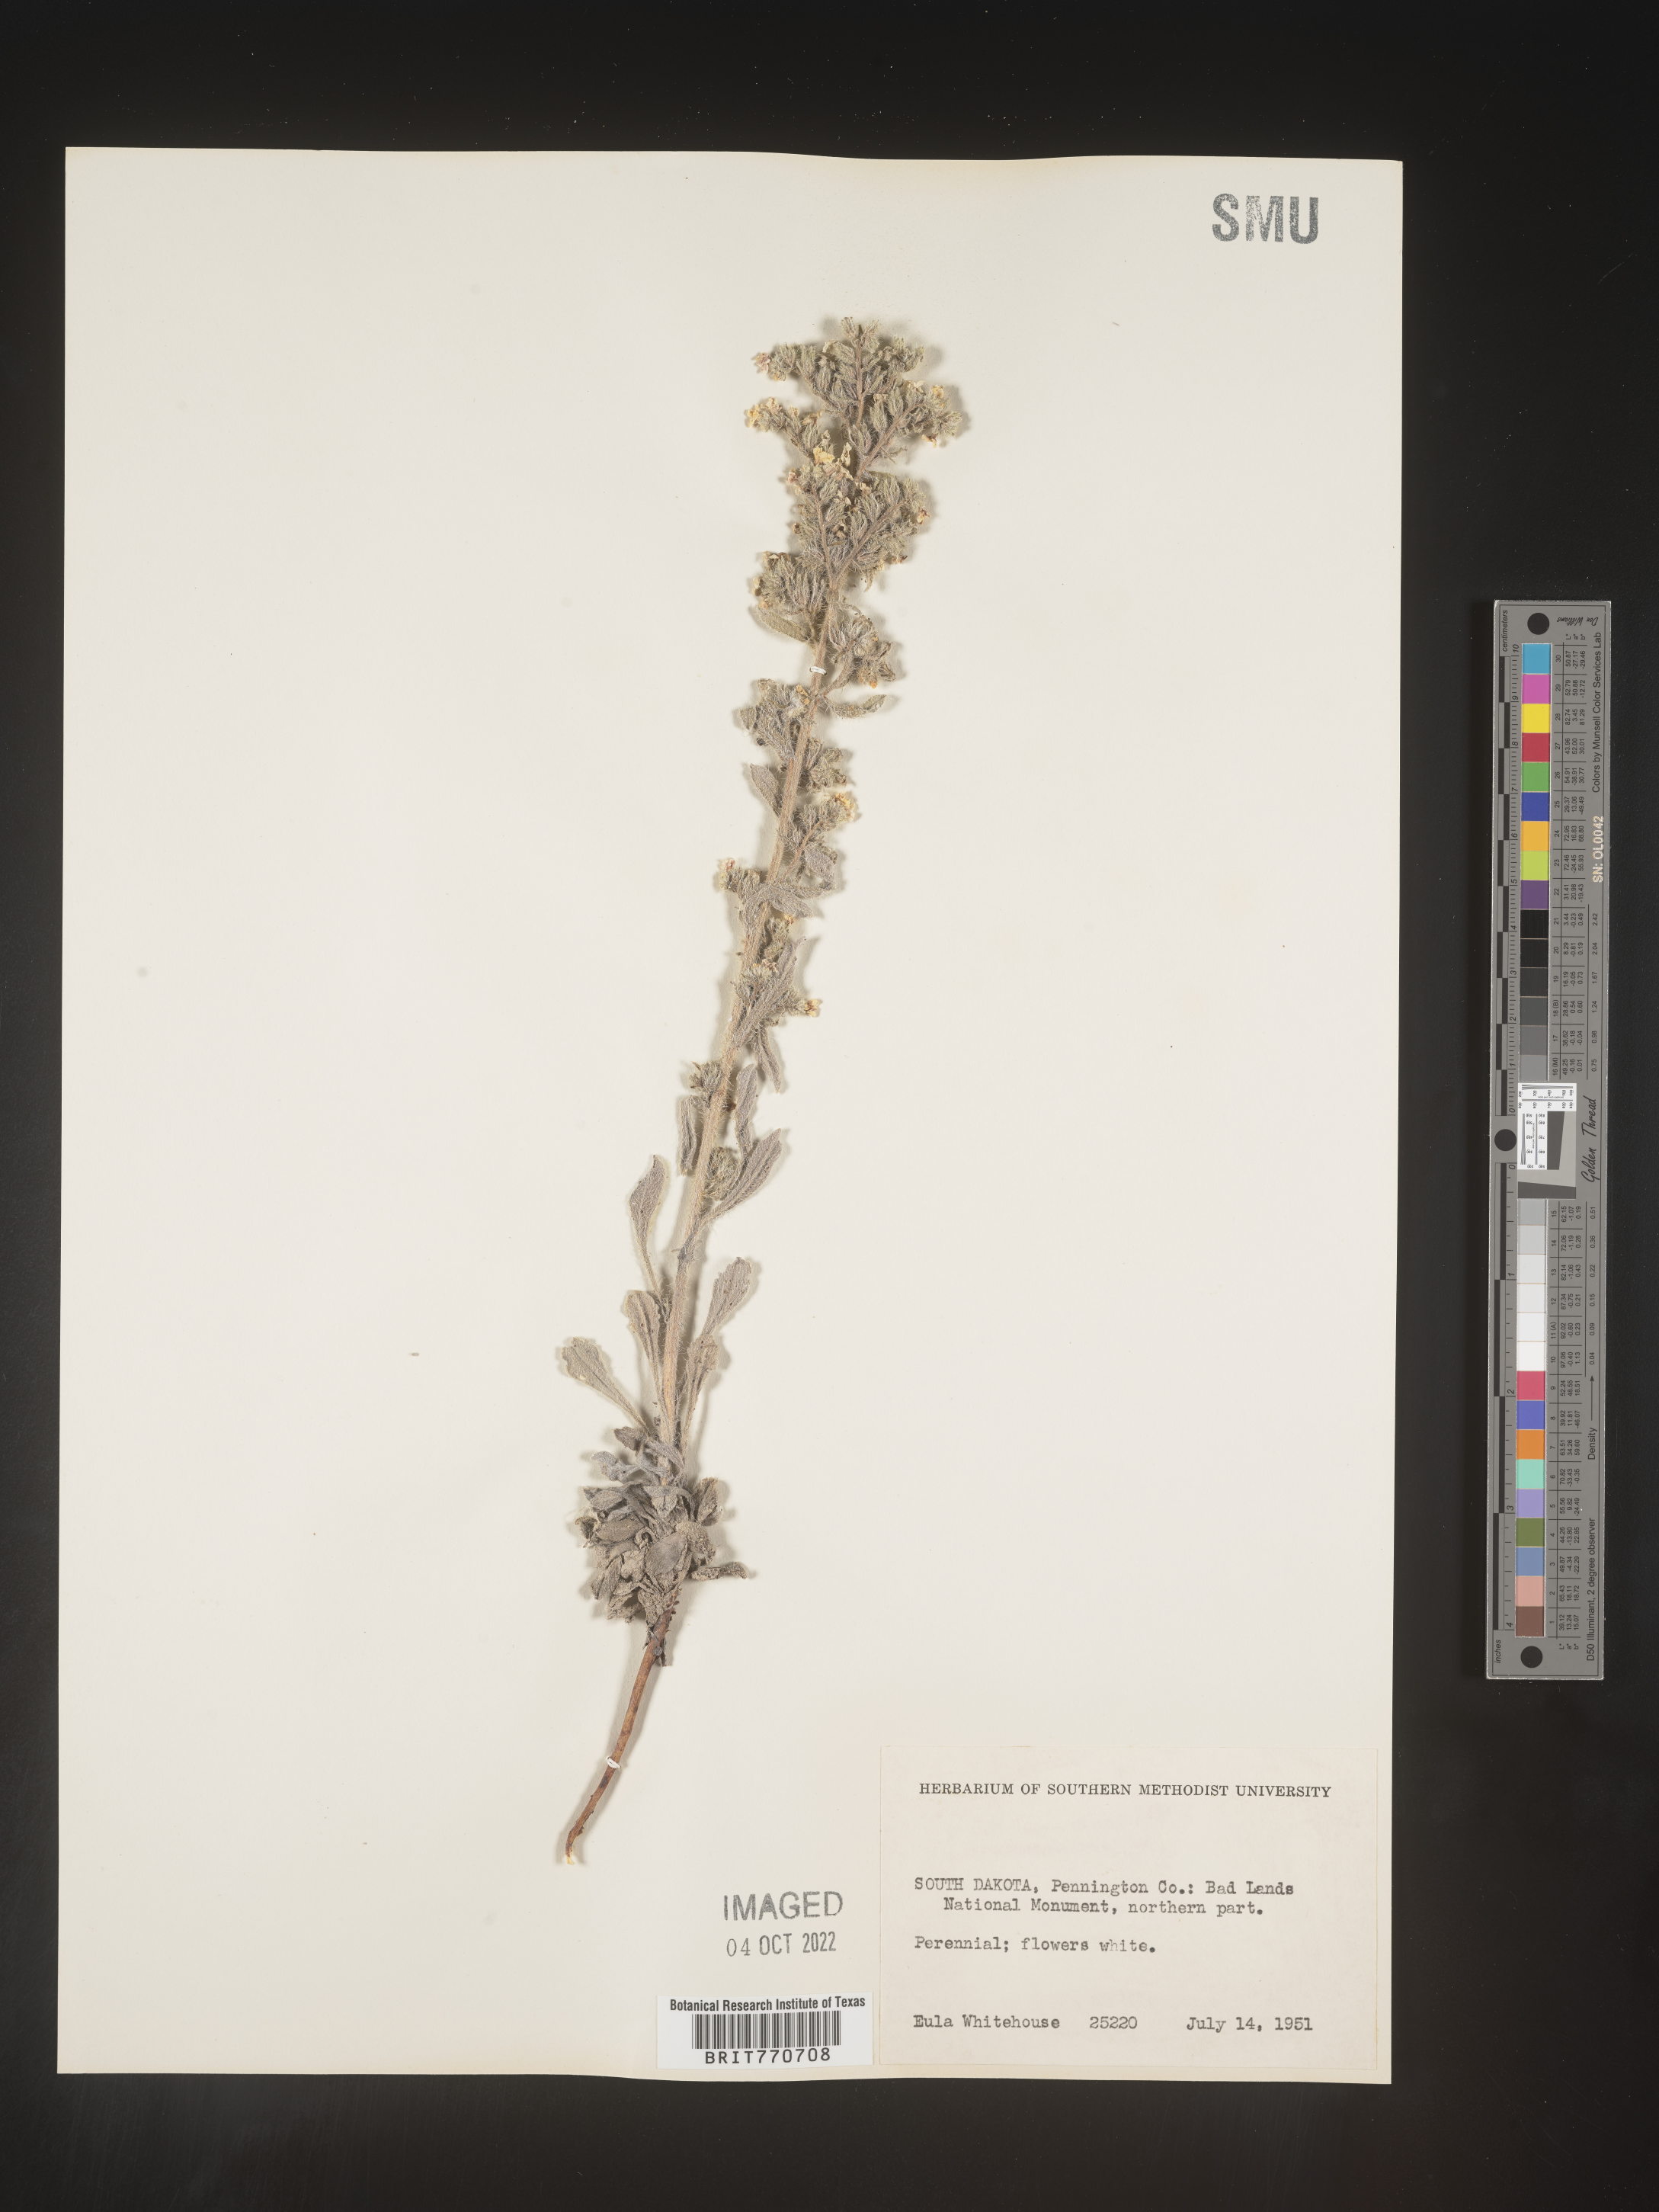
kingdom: Plantae
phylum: Tracheophyta
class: Magnoliopsida
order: Boraginales
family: Boraginaceae
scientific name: Boraginaceae
